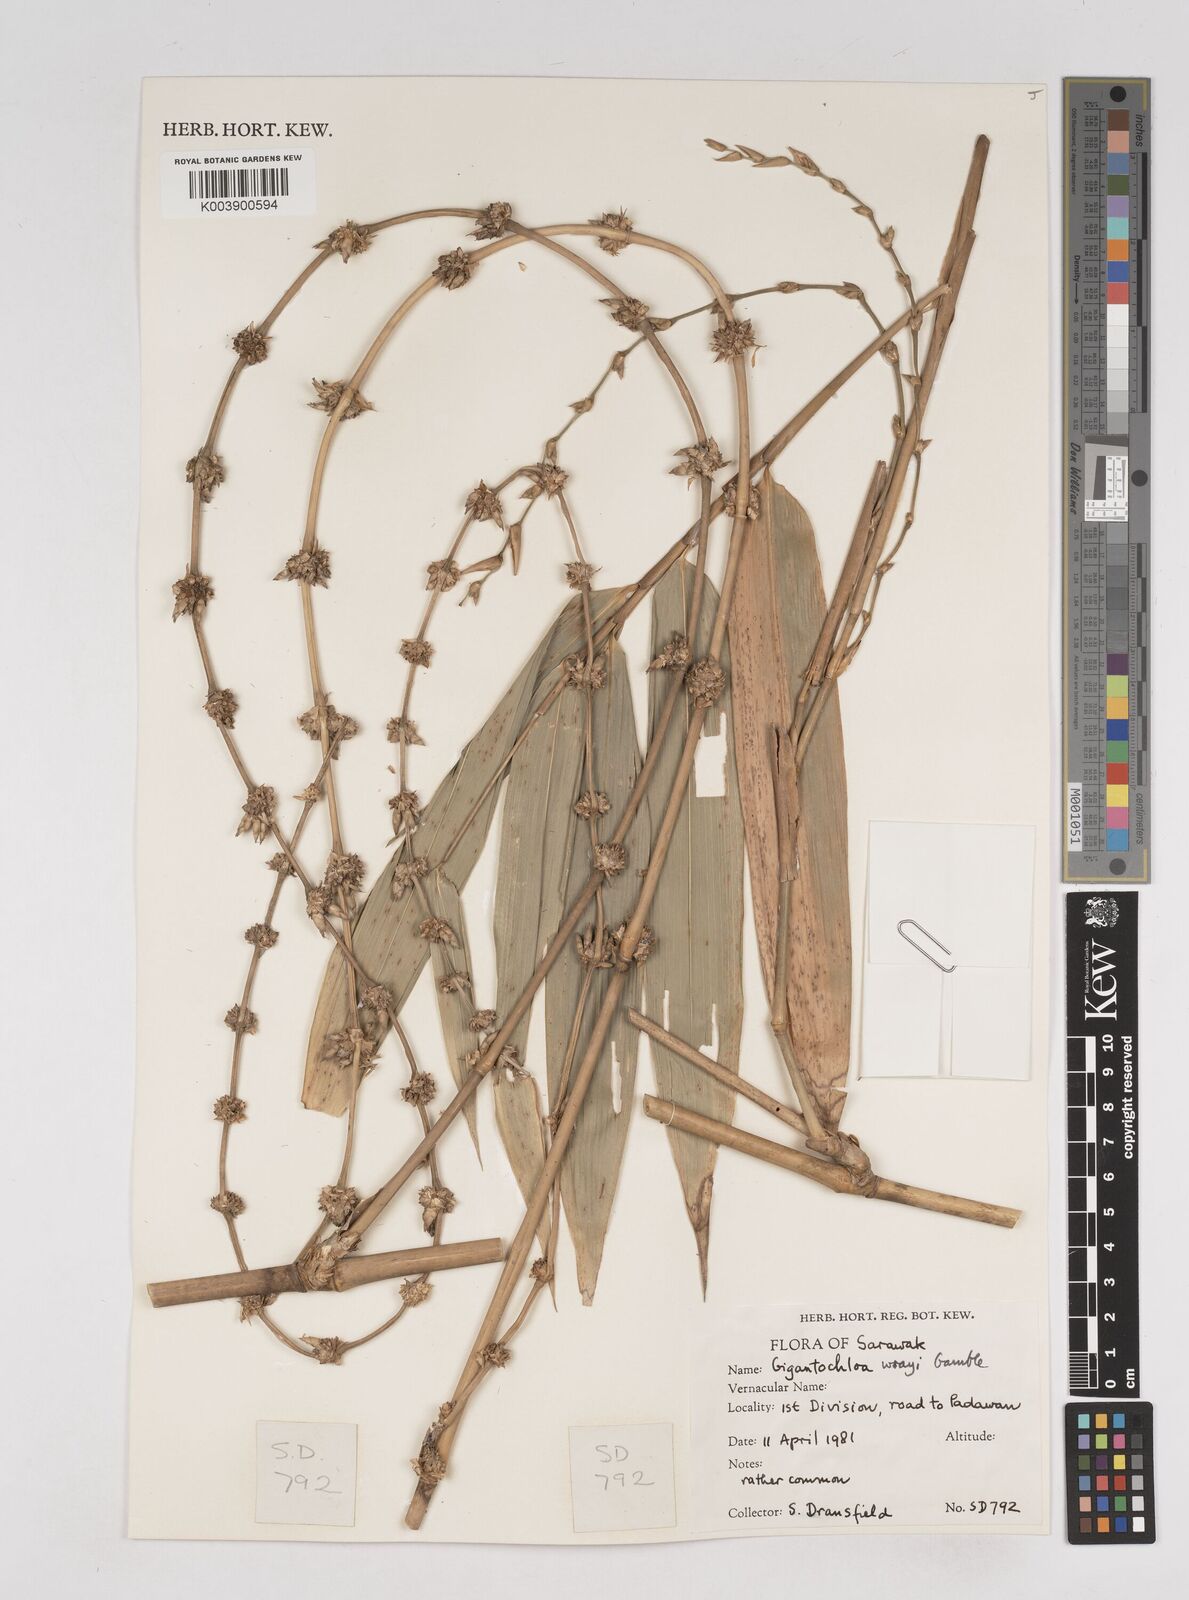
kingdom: Plantae
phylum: Tracheophyta
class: Liliopsida
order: Poales
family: Poaceae
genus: Gigantochloa
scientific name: Gigantochloa wrayi
